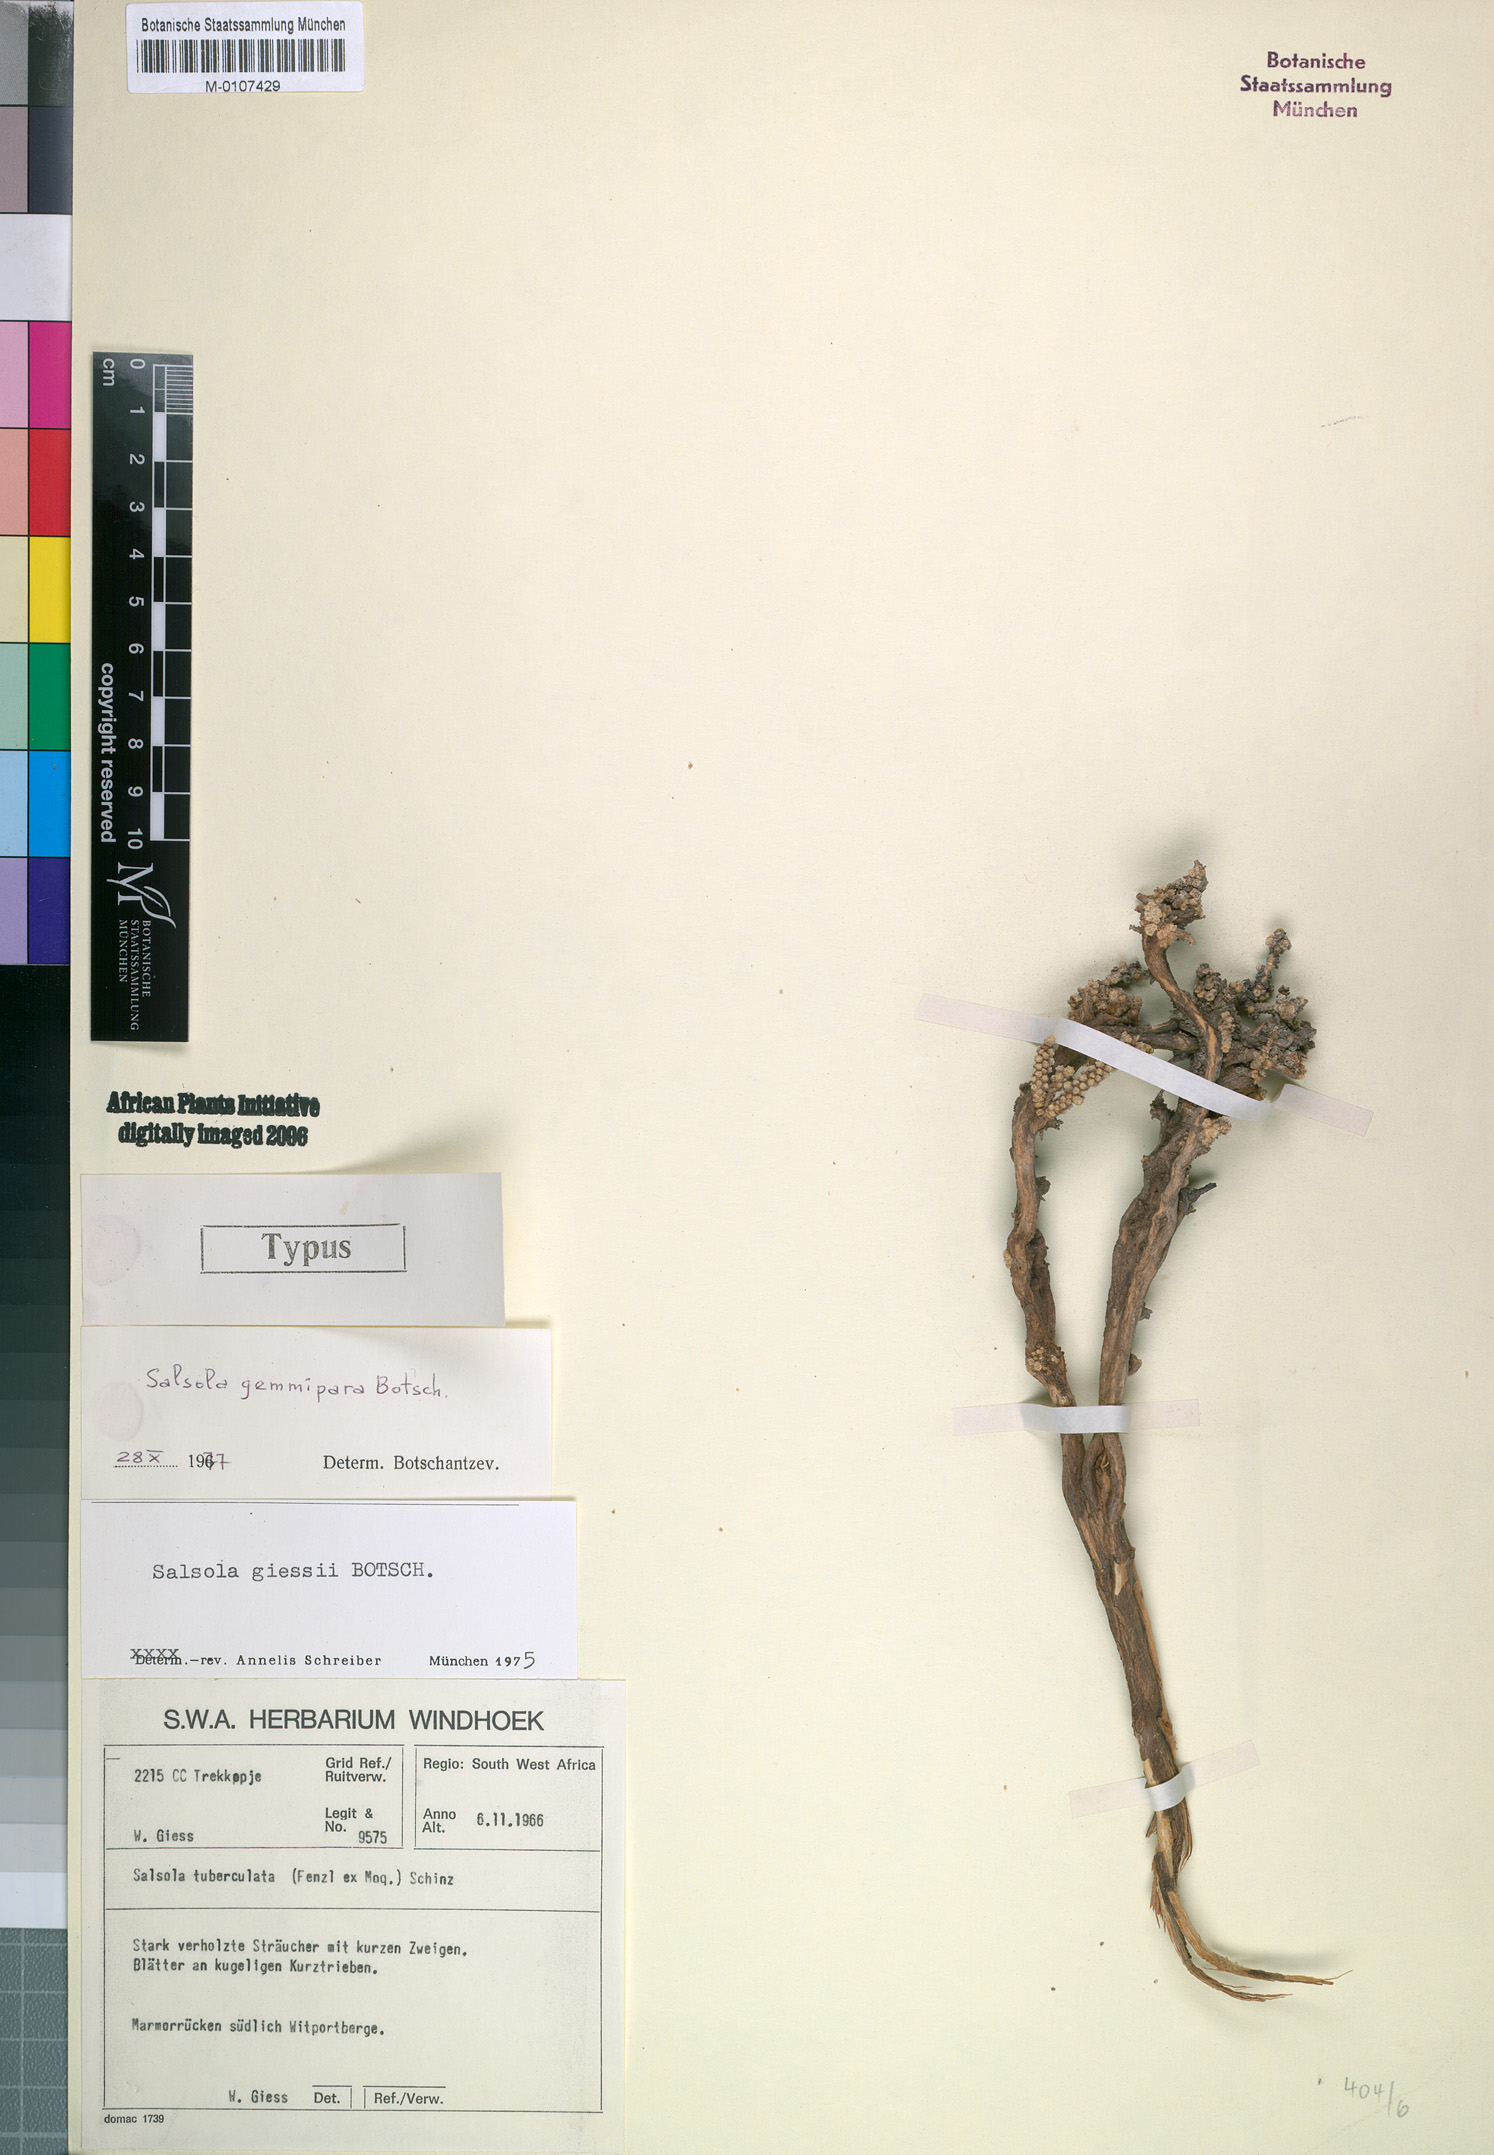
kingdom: Plantae
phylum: Tracheophyta
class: Magnoliopsida
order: Caryophyllales
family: Amaranthaceae
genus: Caroxylon
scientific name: Caroxylon gemmiparum
